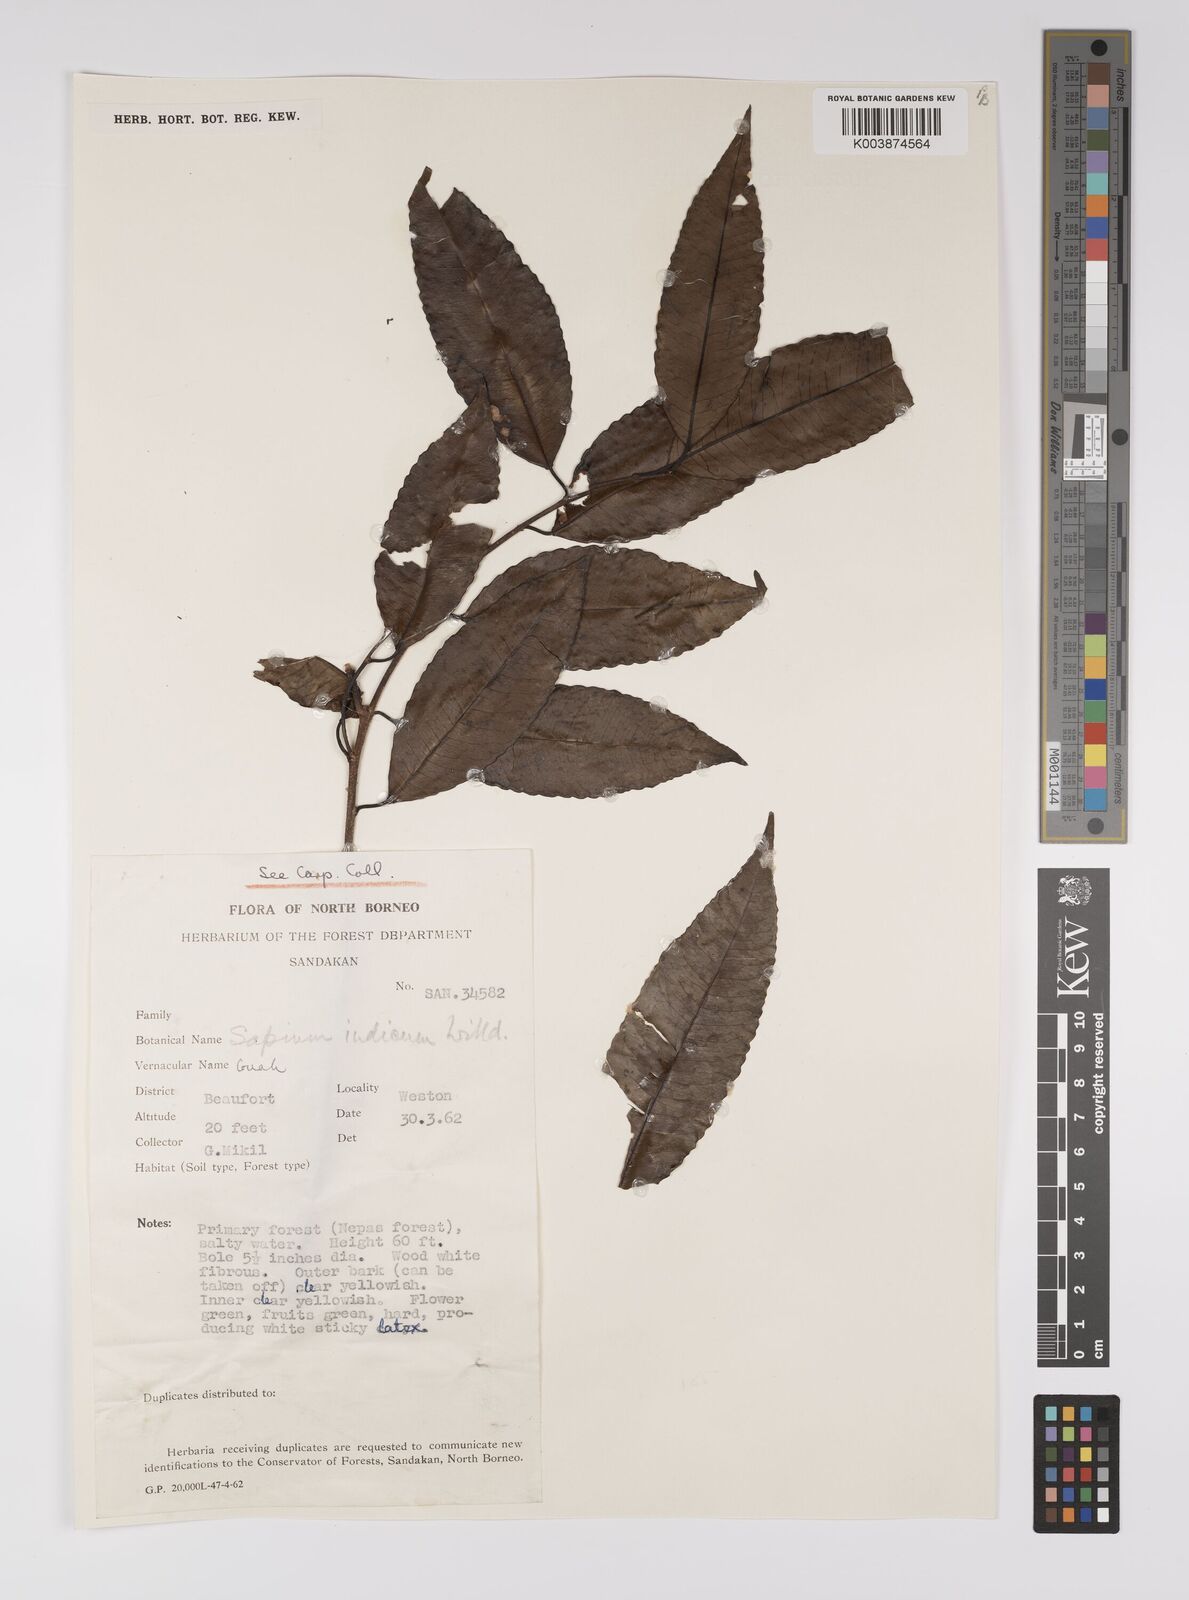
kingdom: Plantae
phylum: Tracheophyta
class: Magnoliopsida
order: Malpighiales
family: Euphorbiaceae
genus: Shirakiopsis
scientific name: Shirakiopsis indica
